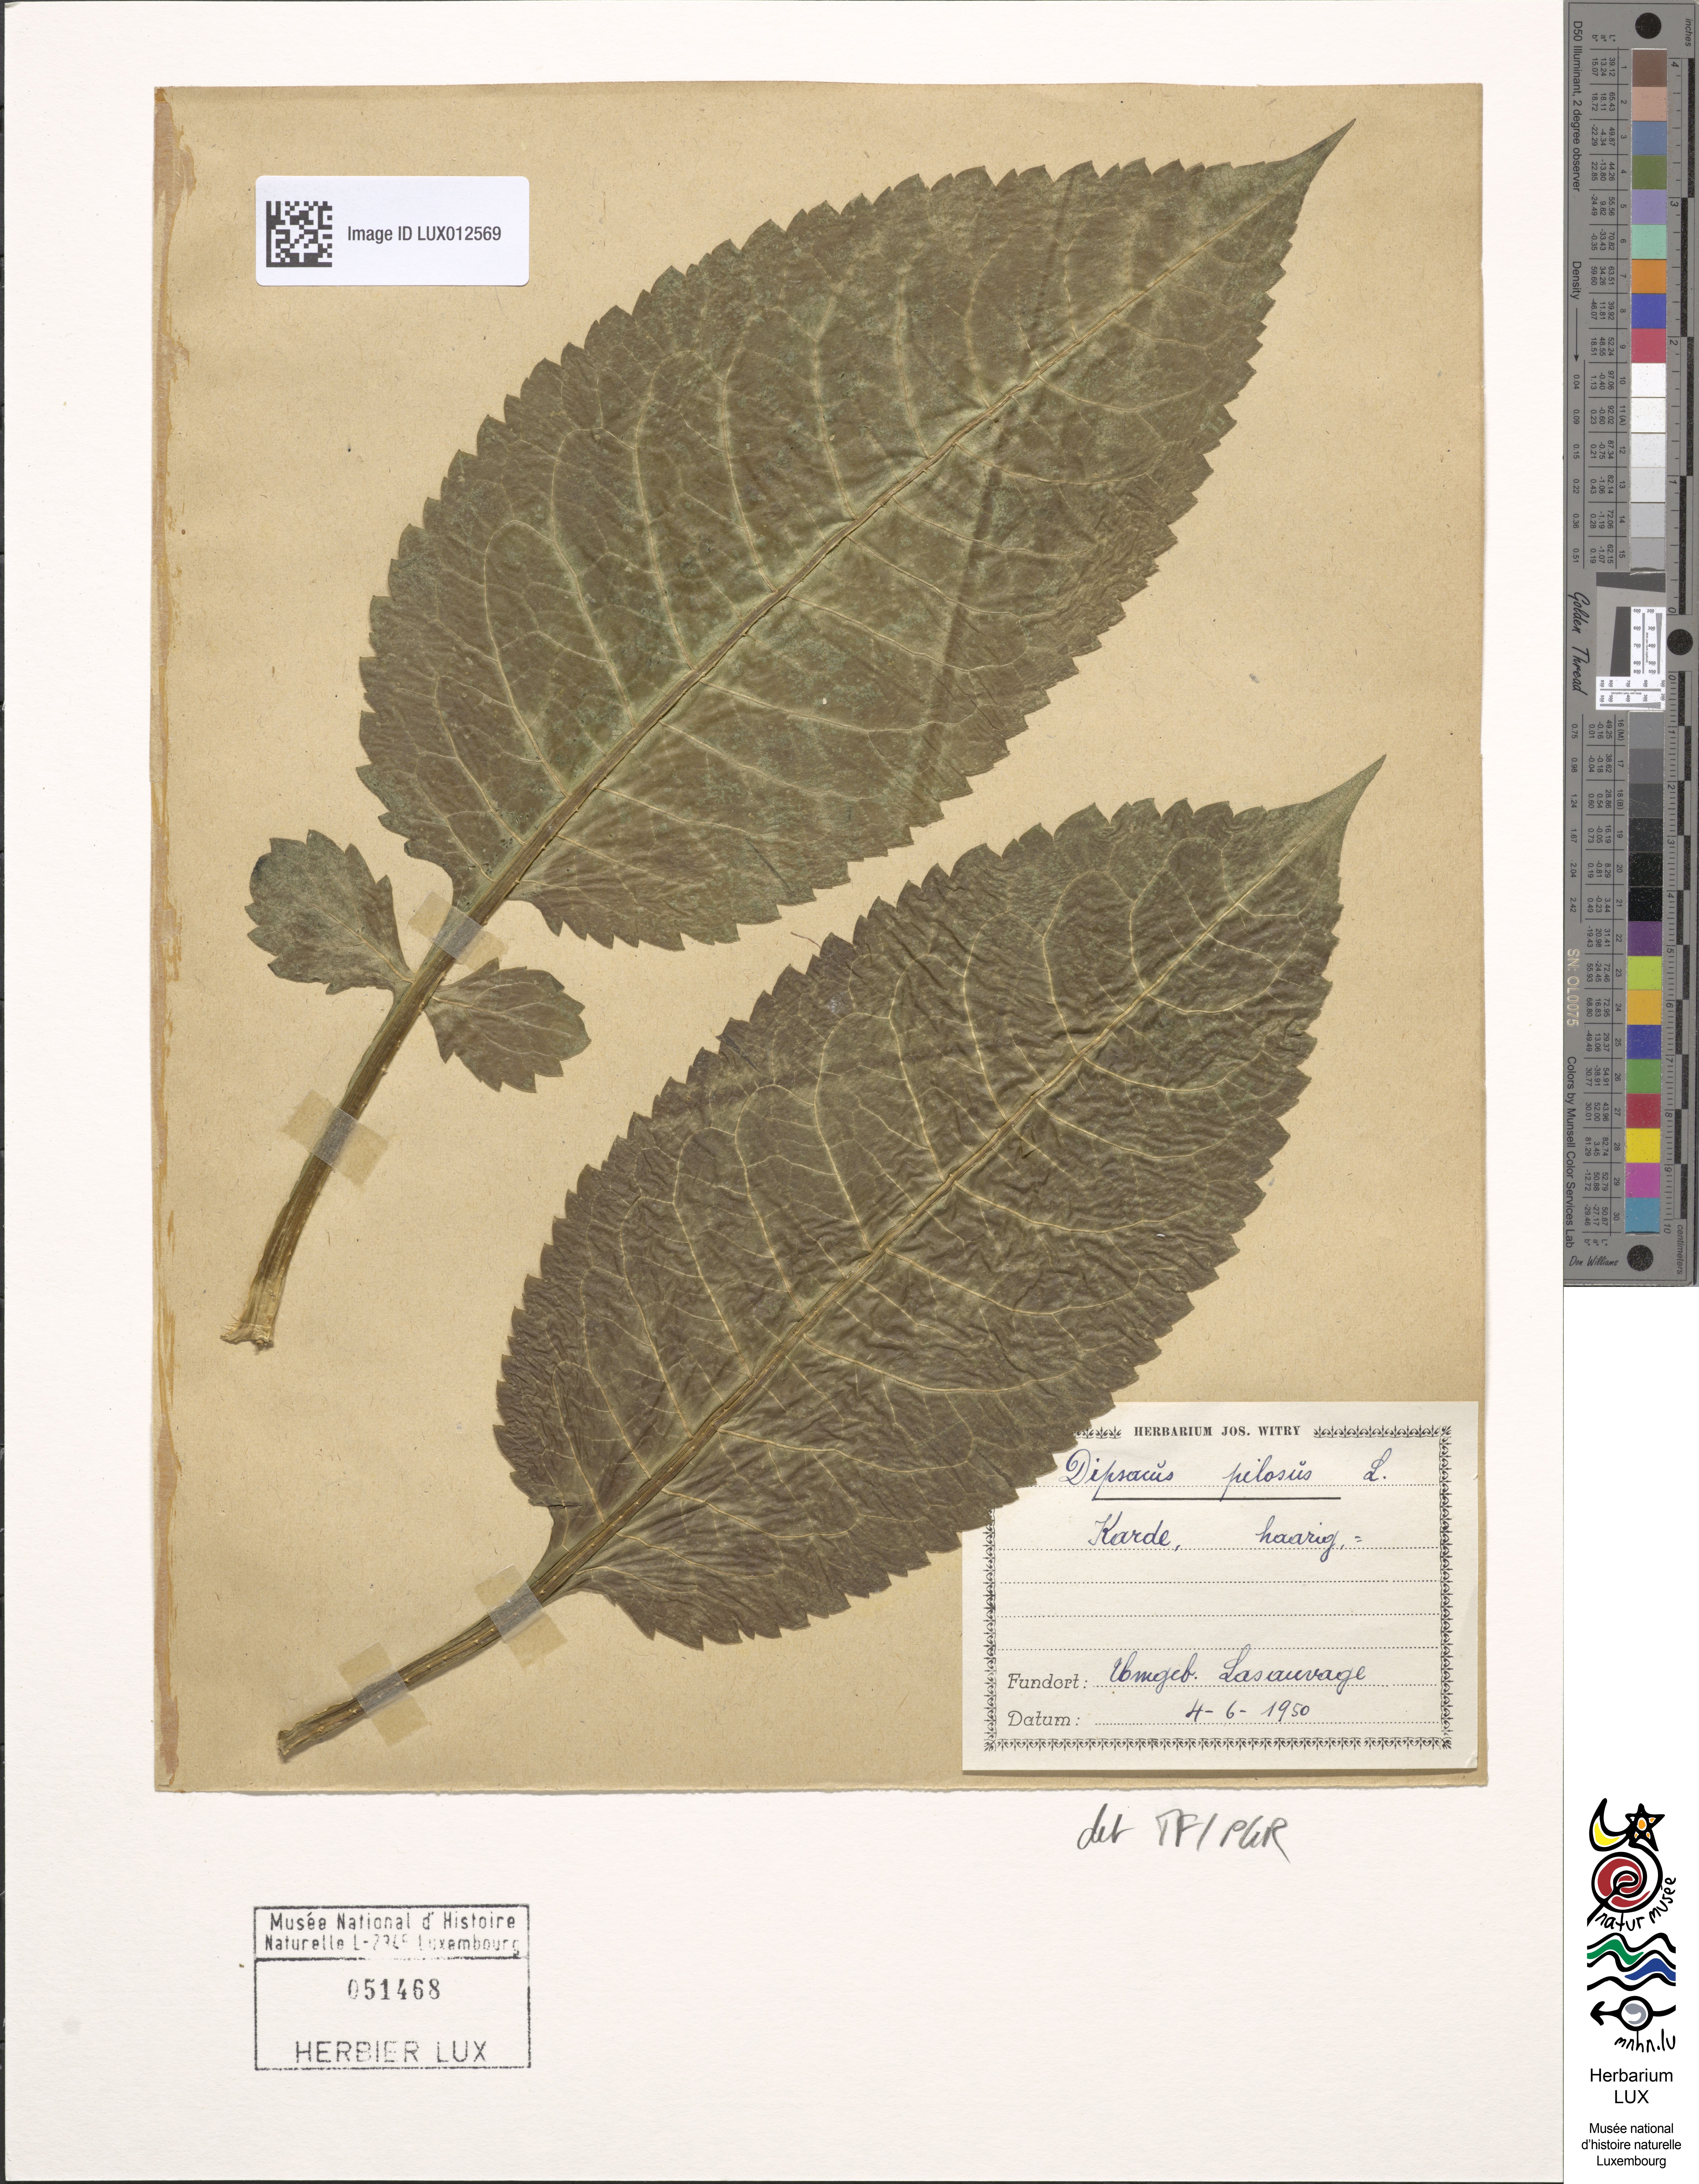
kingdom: Plantae
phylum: Tracheophyta
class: Magnoliopsida
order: Dipsacales
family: Caprifoliaceae
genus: Dipsacus
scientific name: Dipsacus pilosus
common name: Small teasel
